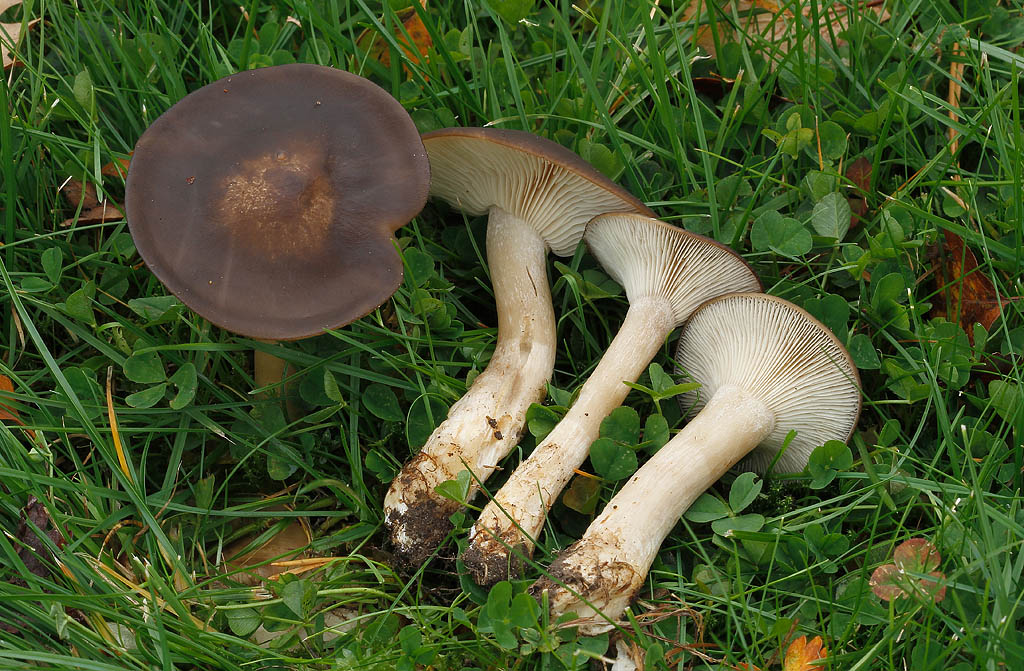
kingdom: Fungi
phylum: Basidiomycota
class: Agaricomycetes
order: Agaricales
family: Lyophyllaceae
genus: Lyophyllum
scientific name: Lyophyllum decastes
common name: røggrå gråblad
